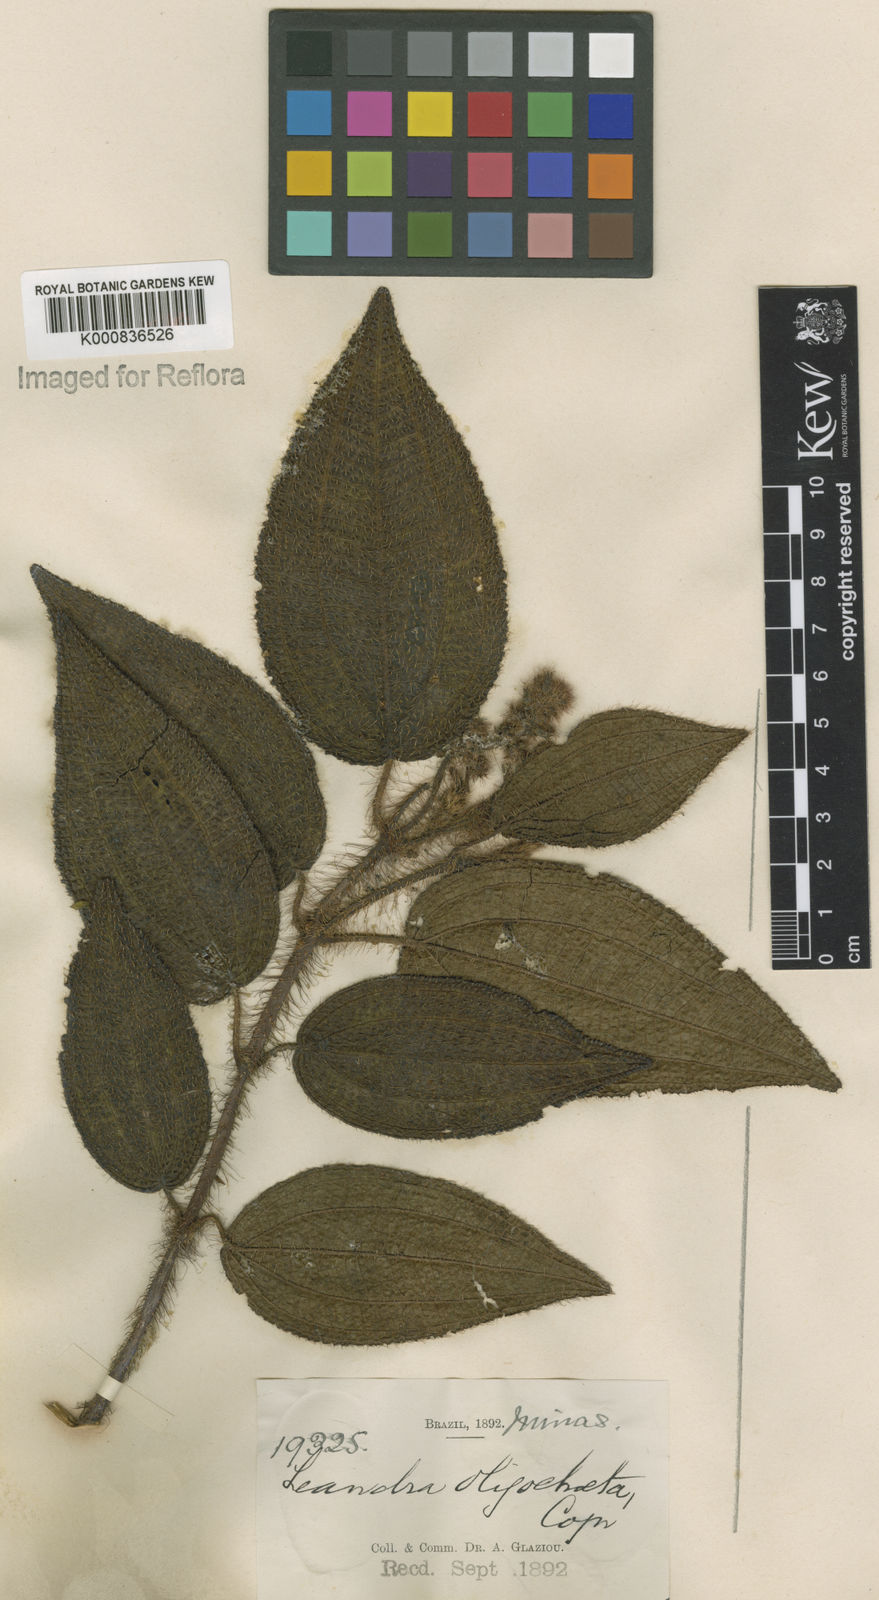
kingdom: Plantae
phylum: Tracheophyta
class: Magnoliopsida
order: Myrtales
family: Melastomataceae
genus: Miconia
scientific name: Miconia oligochaeta
